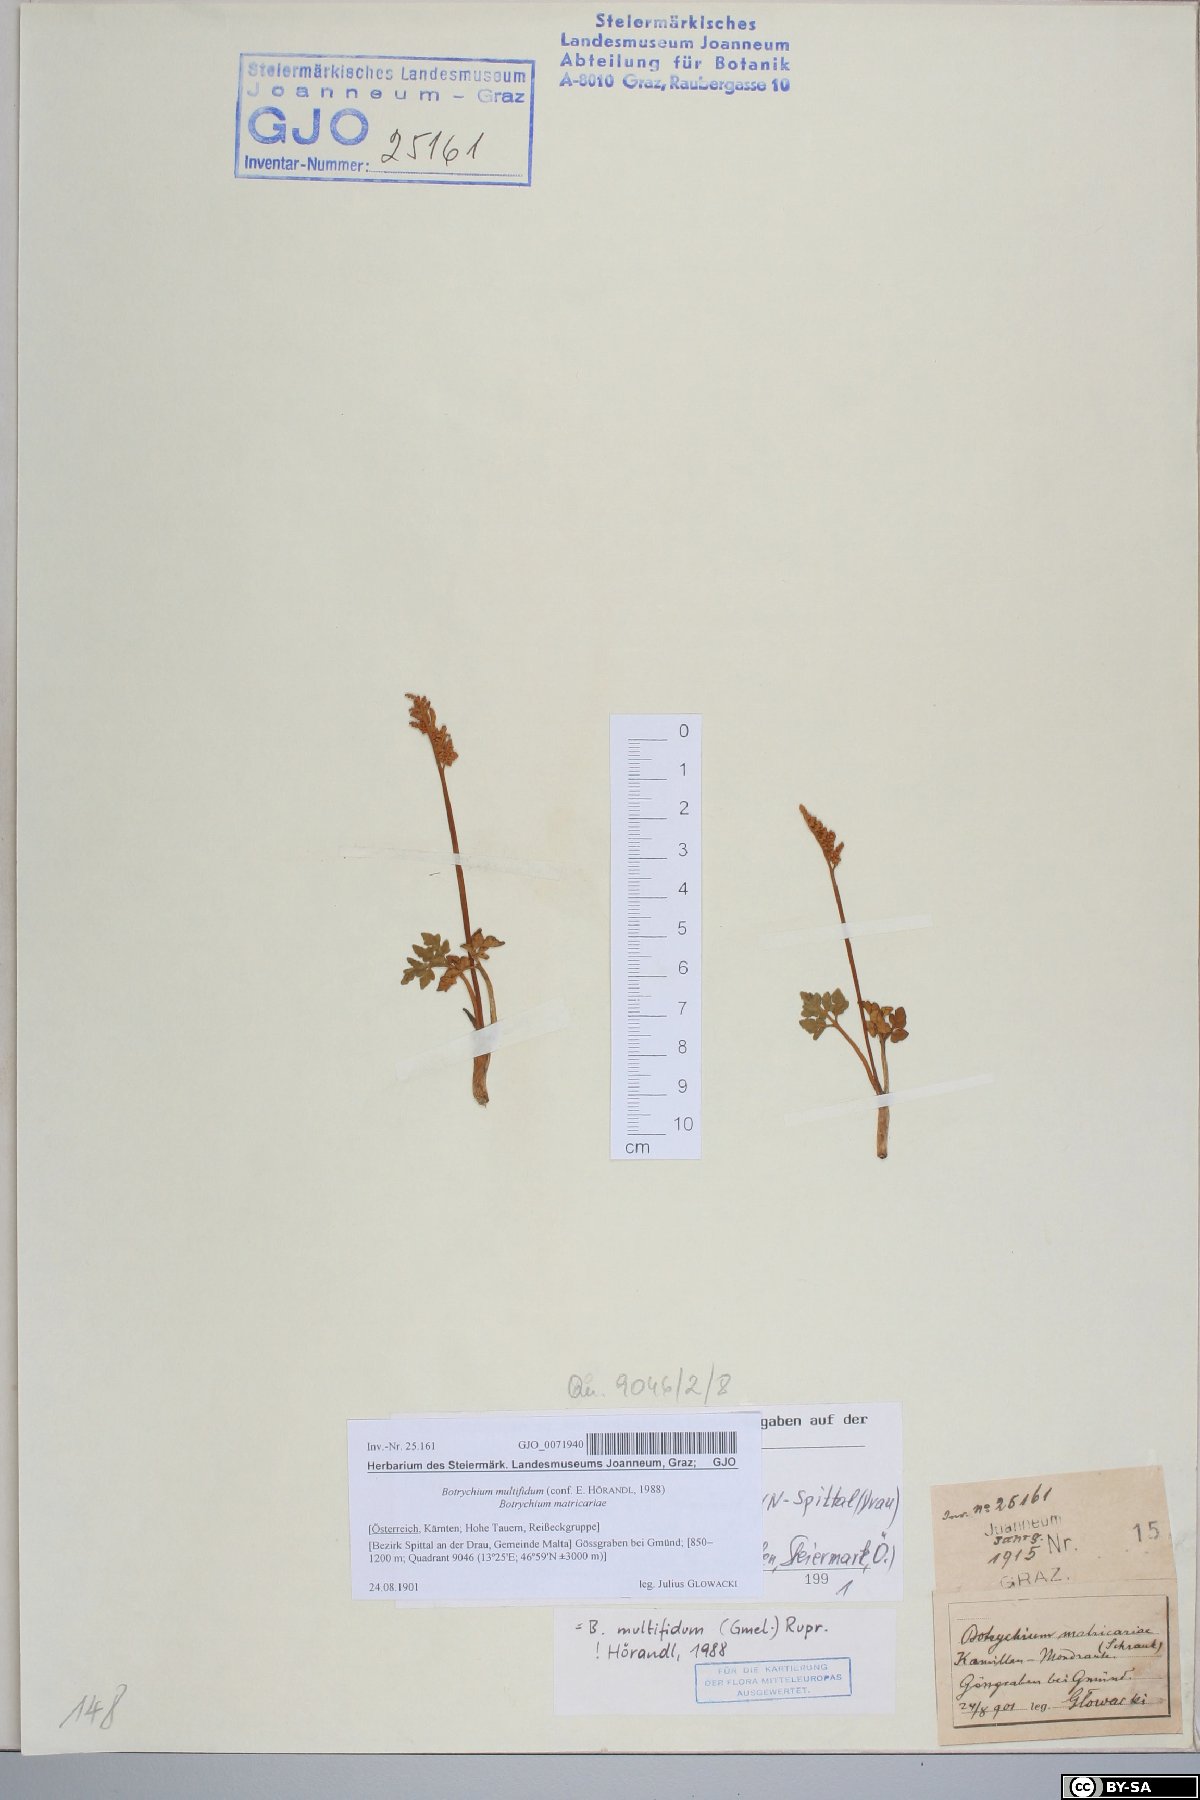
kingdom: Plantae
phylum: Tracheophyta
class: Polypodiopsida
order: Ophioglossales
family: Ophioglossaceae
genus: Sceptridium
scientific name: Sceptridium multifidum
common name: Leathery grape fern
